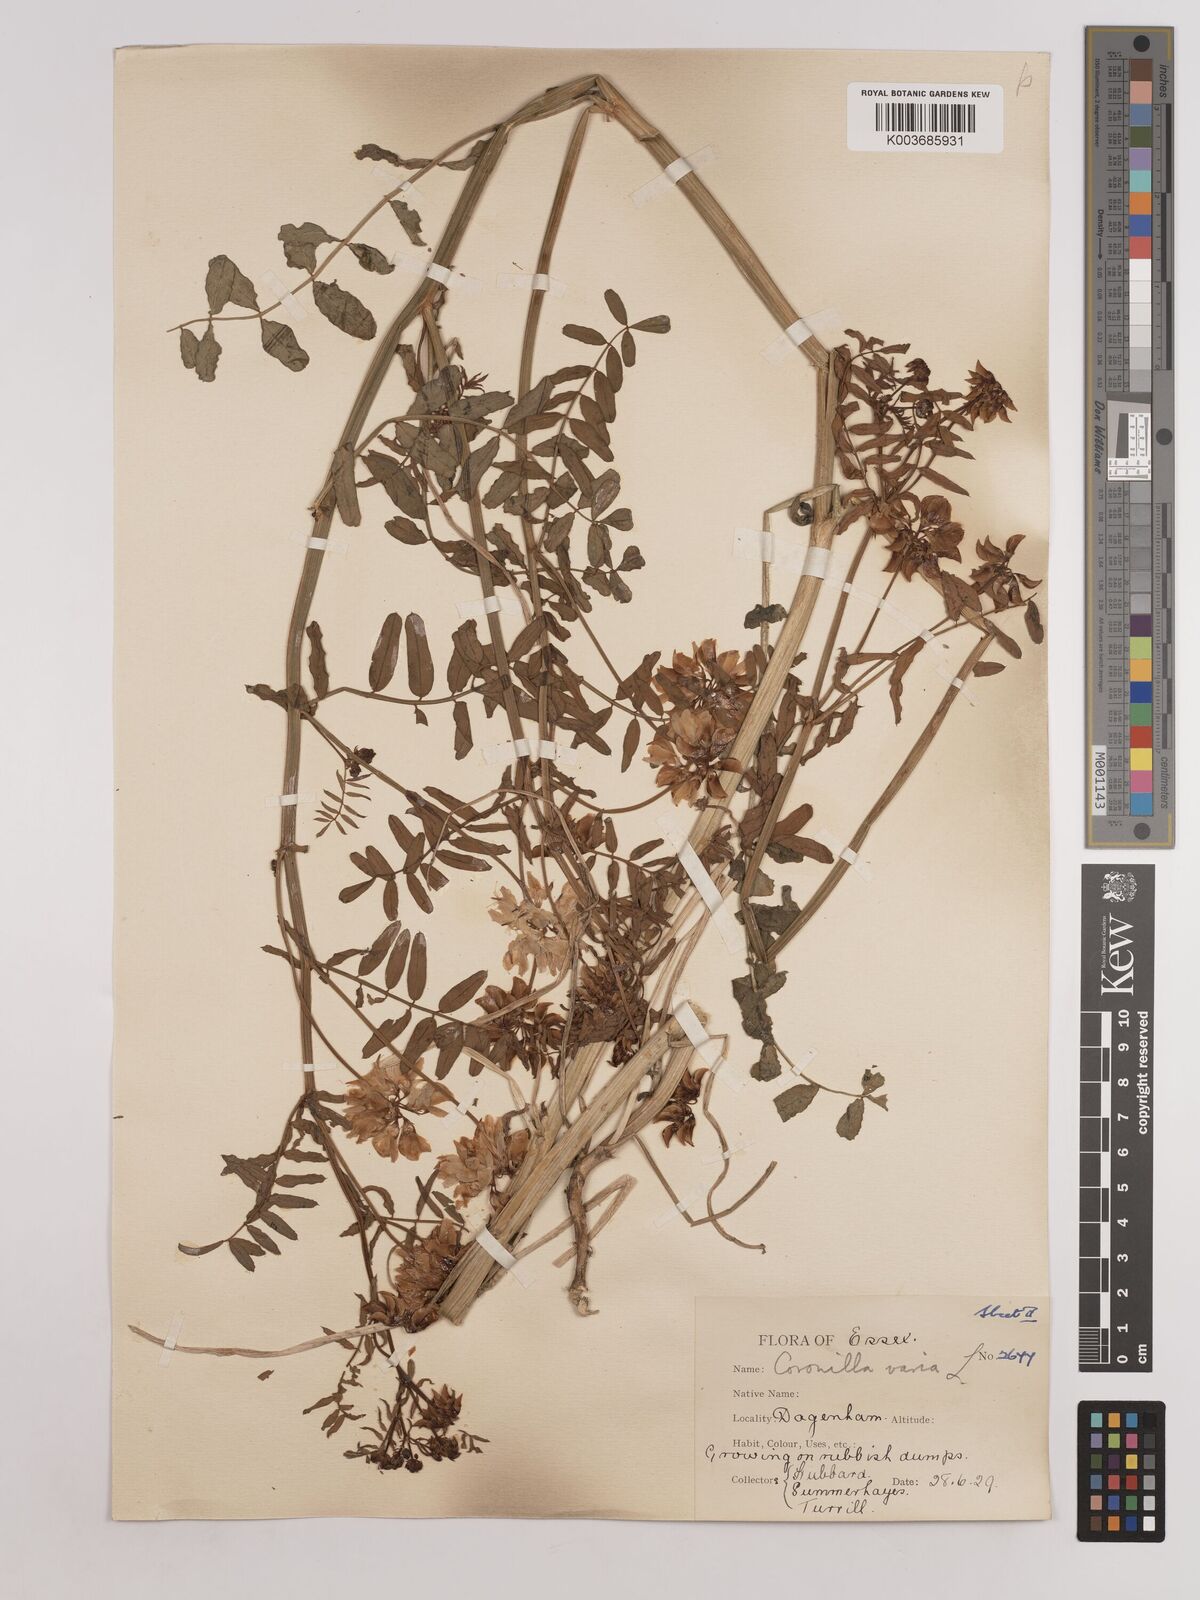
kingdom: Plantae
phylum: Tracheophyta
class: Magnoliopsida
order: Fabales
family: Fabaceae
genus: Coronilla
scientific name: Coronilla varia
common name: Crownvetch
